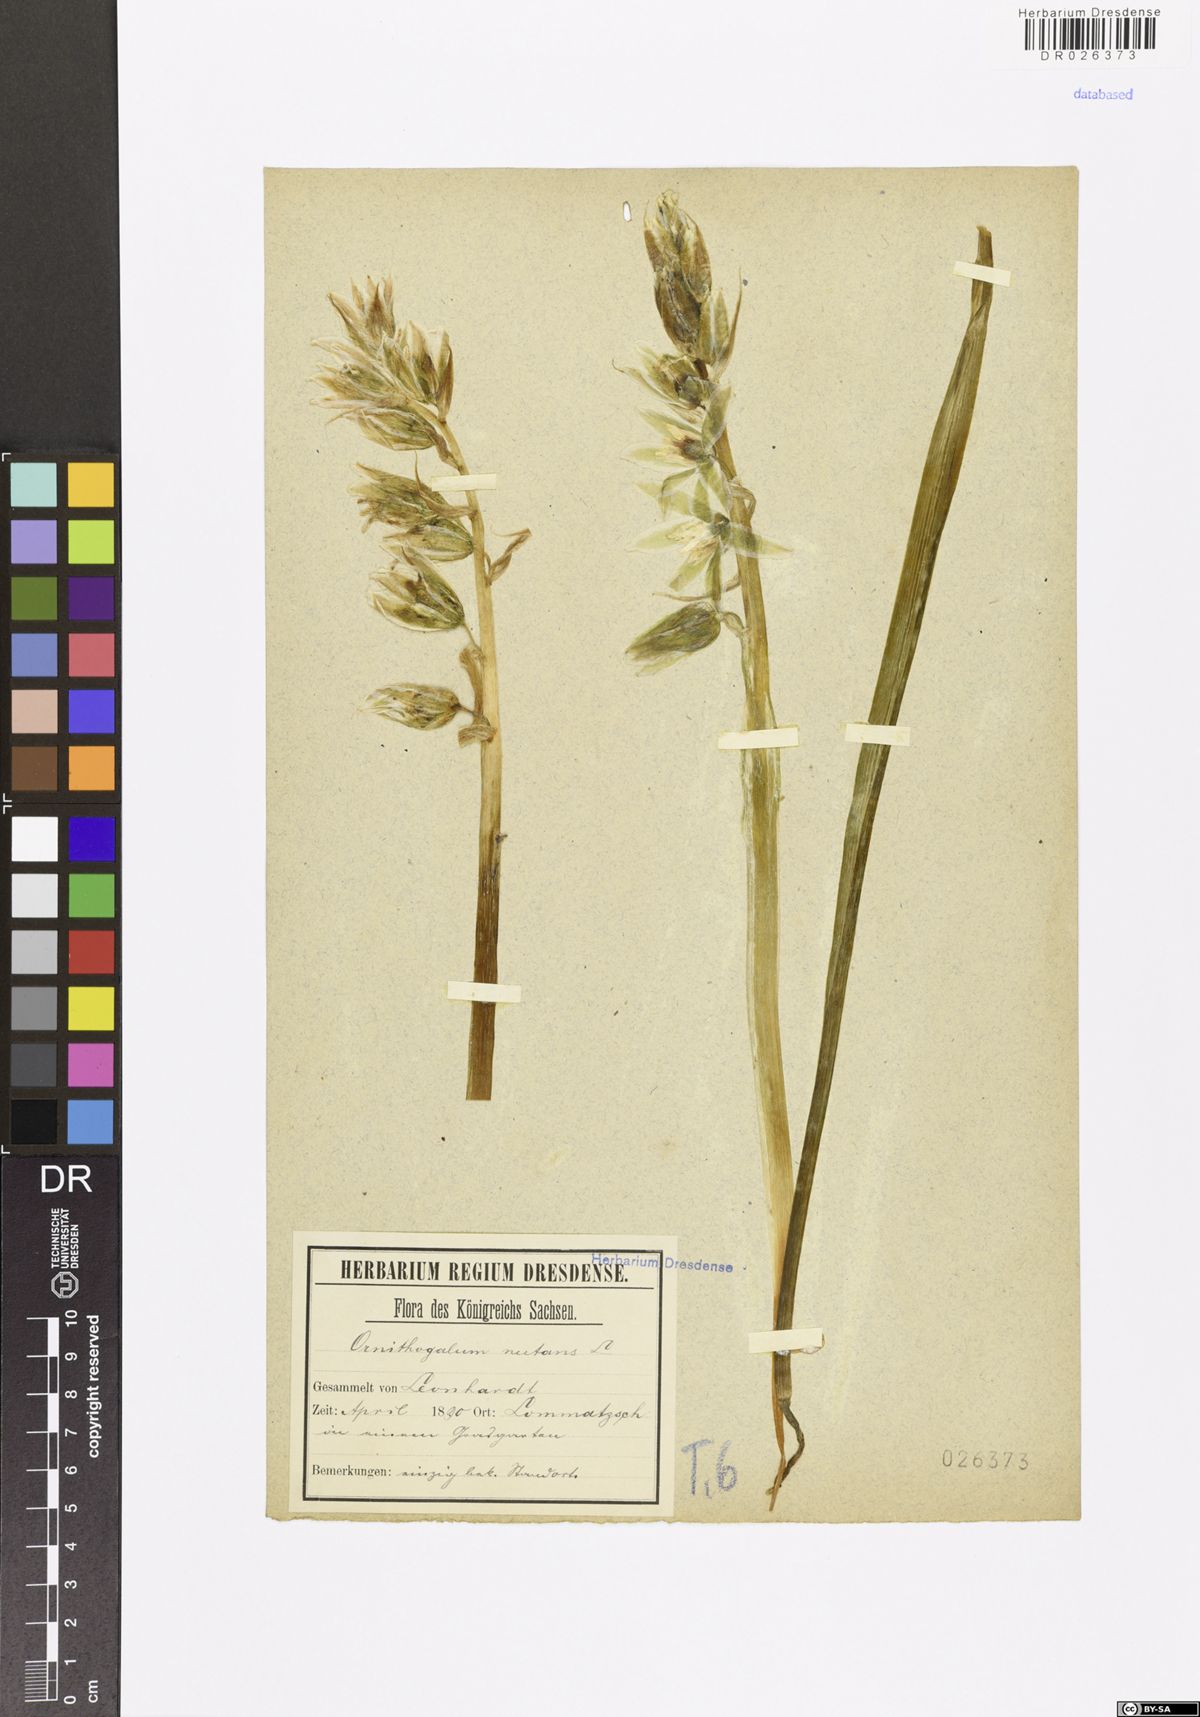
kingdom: Plantae
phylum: Tracheophyta
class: Liliopsida
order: Asparagales
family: Asparagaceae
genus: Ornithogalum
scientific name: Ornithogalum nutans
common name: Drooping star-of-bethlehem
